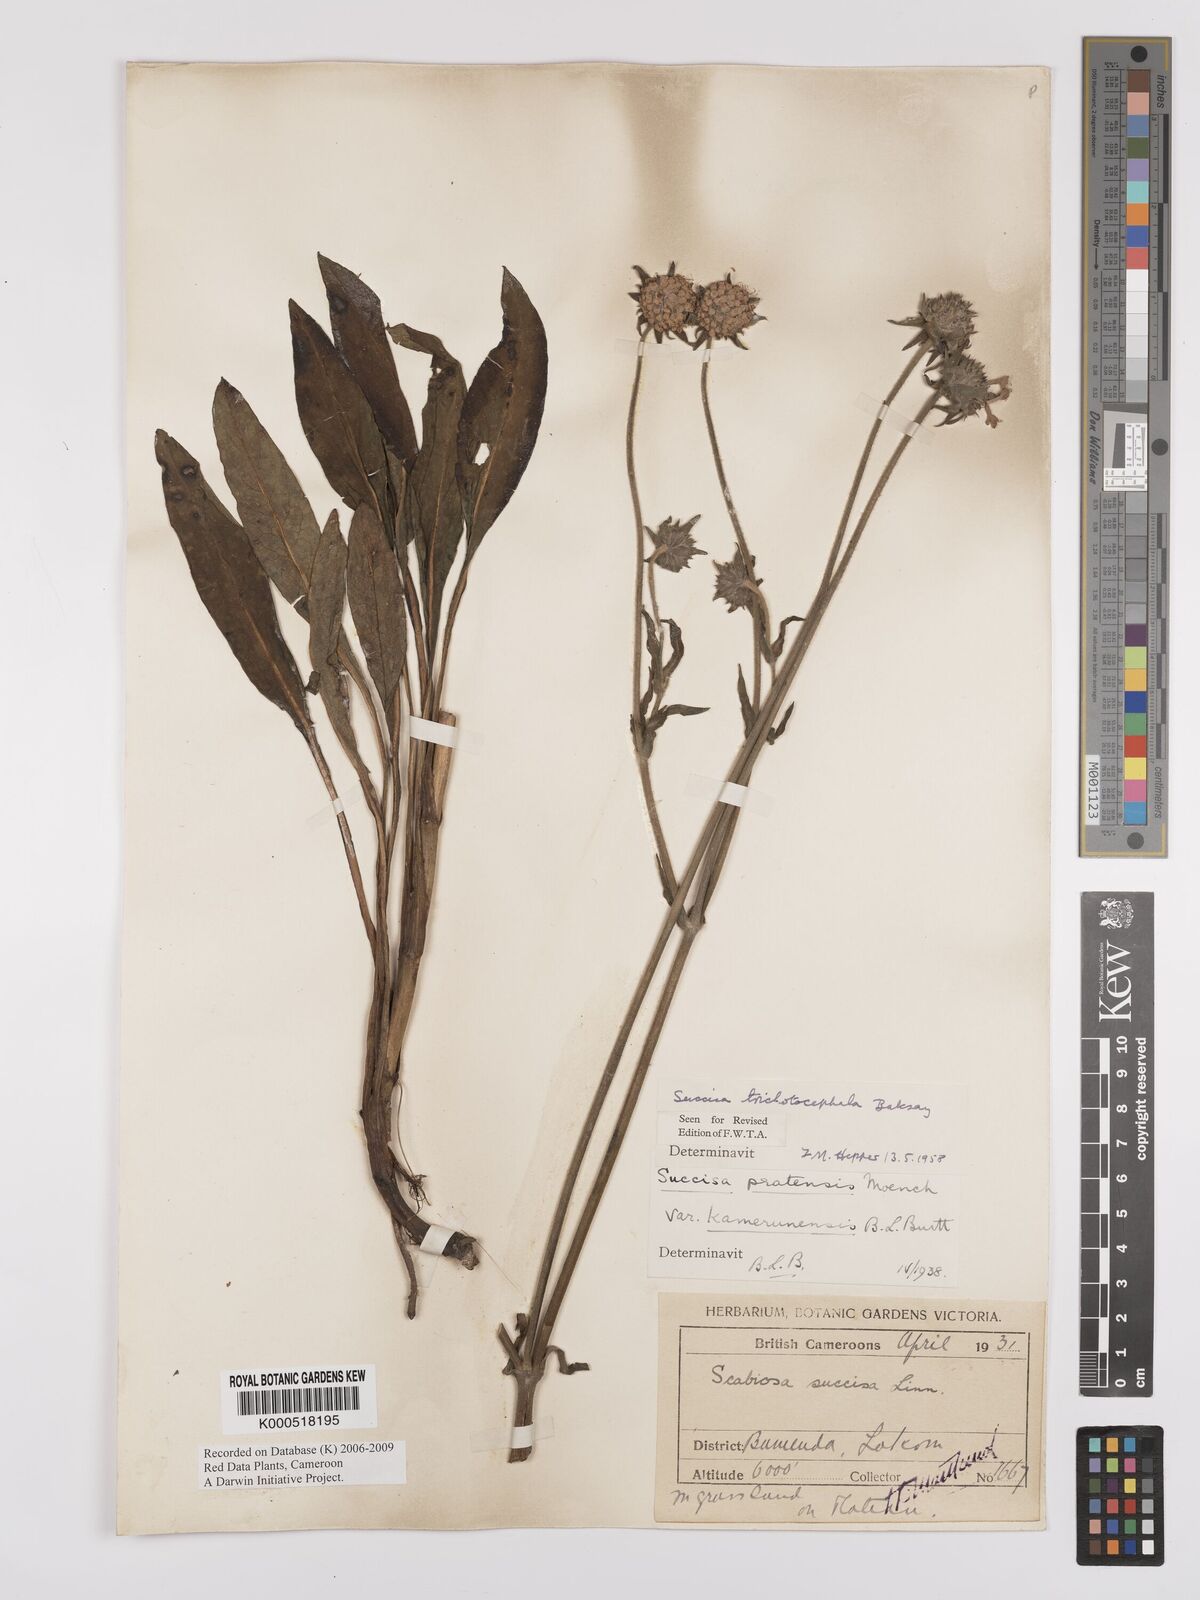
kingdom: Plantae
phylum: Tracheophyta
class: Magnoliopsida
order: Dipsacales
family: Caprifoliaceae
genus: Succisa
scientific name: Succisa trichotocephala
